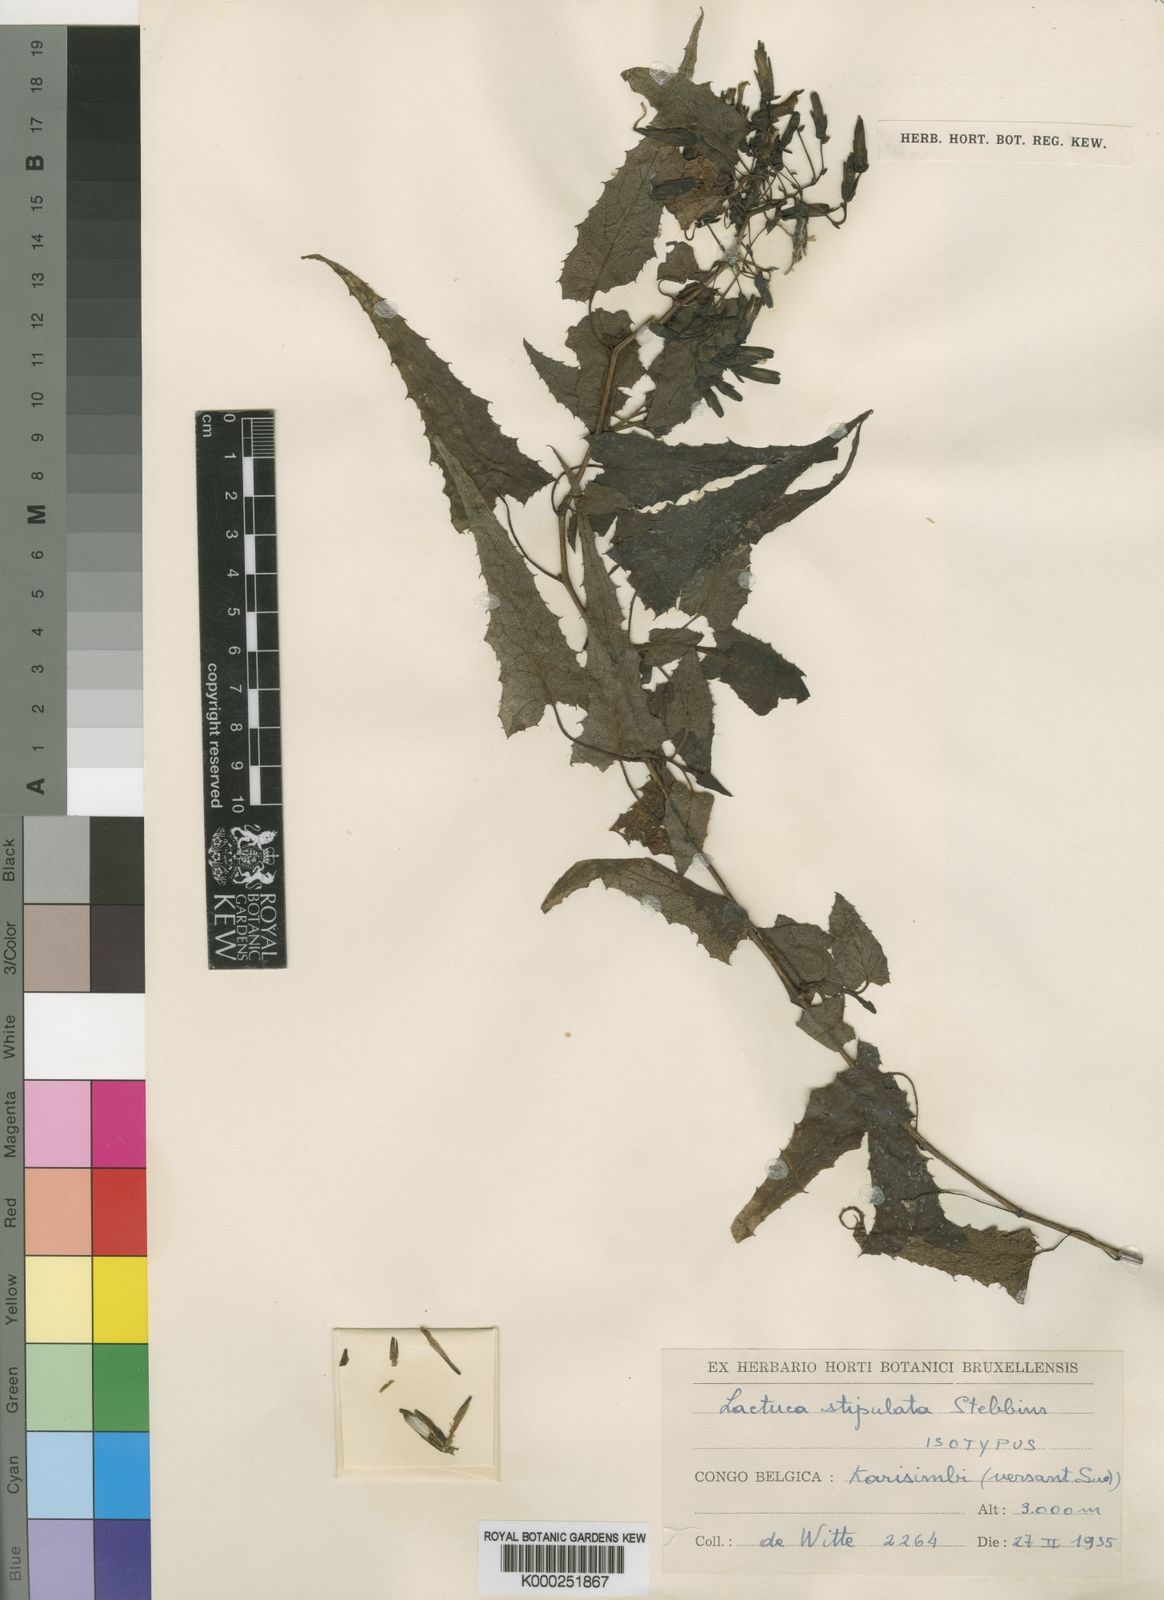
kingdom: Plantae
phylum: Tracheophyta
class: Magnoliopsida
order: Asterales
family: Asteraceae
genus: Lactuca
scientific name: Lactuca stipulata
